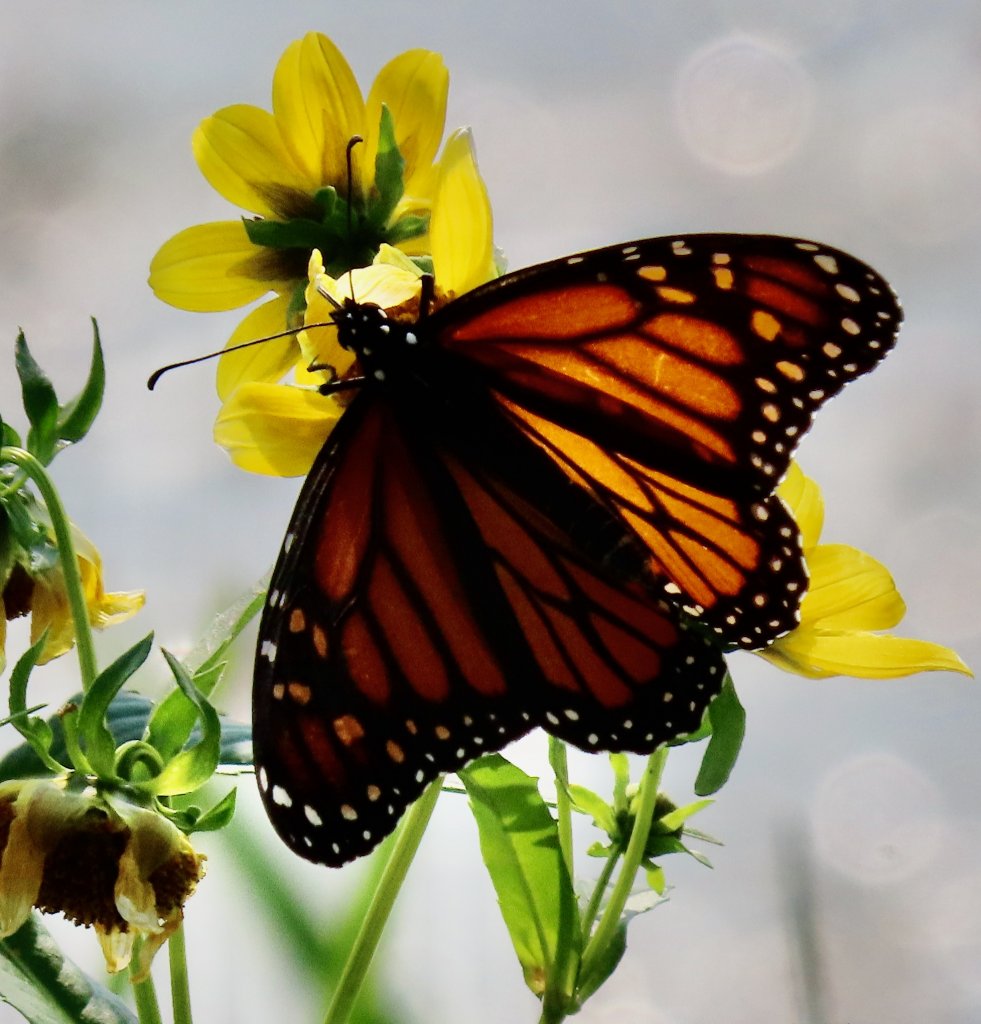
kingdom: Animalia
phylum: Arthropoda
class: Insecta
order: Lepidoptera
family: Nymphalidae
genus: Danaus
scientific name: Danaus plexippus
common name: Monarch
